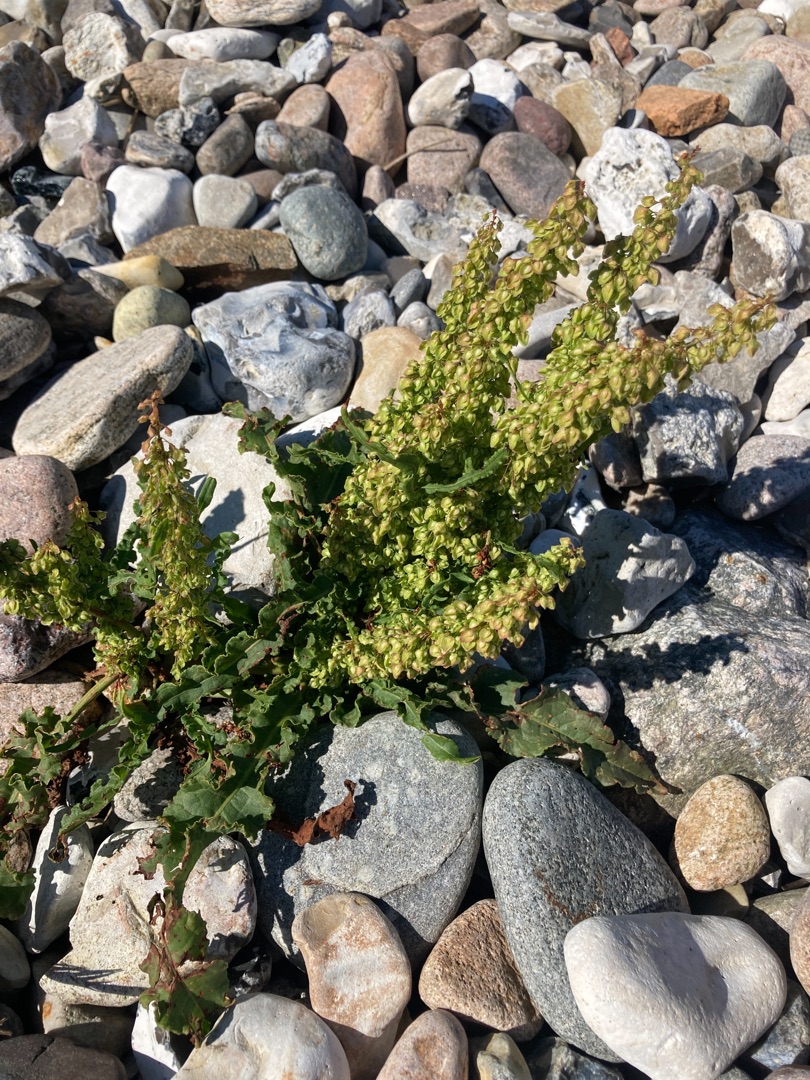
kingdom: Plantae
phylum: Tracheophyta
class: Magnoliopsida
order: Caryophyllales
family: Polygonaceae
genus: Rumex
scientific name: Rumex crispus
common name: Kruset skræppe
